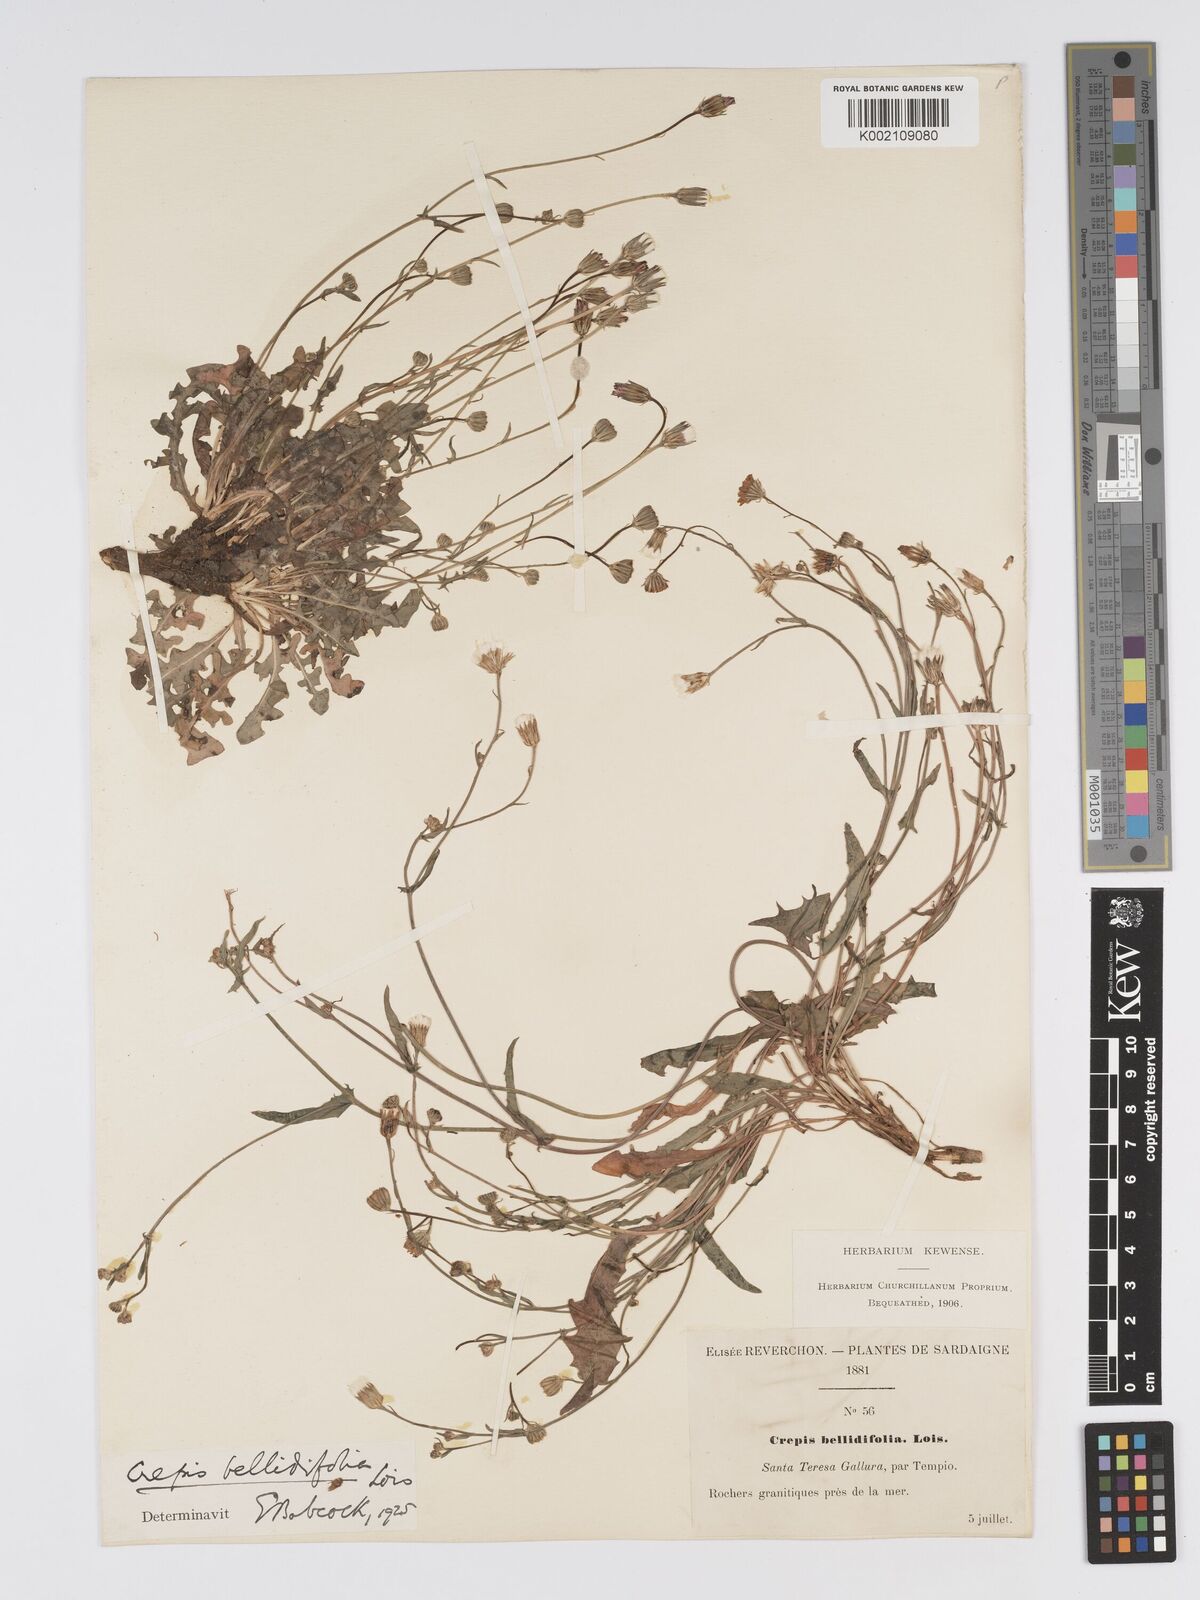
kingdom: Plantae
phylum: Tracheophyta
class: Magnoliopsida
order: Asterales
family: Asteraceae
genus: Crepis
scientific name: Crepis bellidifolia
